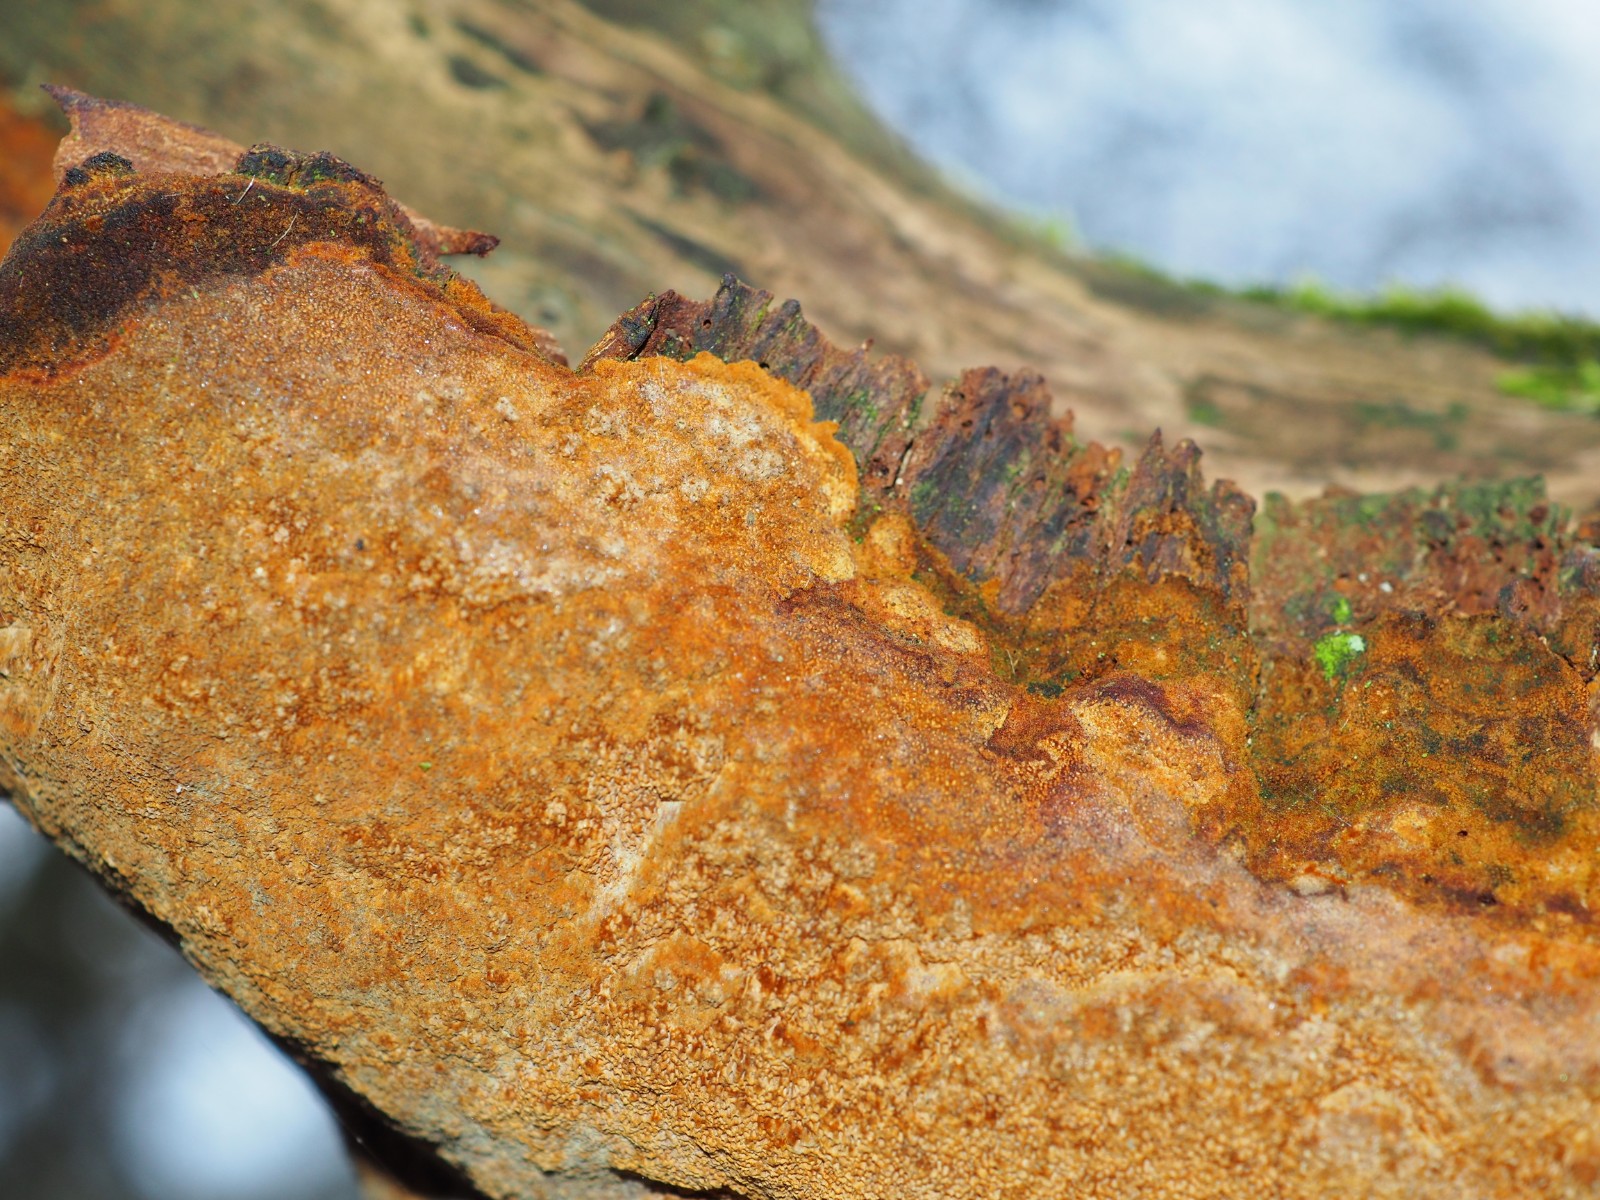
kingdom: Fungi
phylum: Basidiomycota
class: Agaricomycetes
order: Hymenochaetales
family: Hymenochaetaceae
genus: Fuscoporia
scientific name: Fuscoporia ferruginosa
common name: rustbrun ildporesvamp
